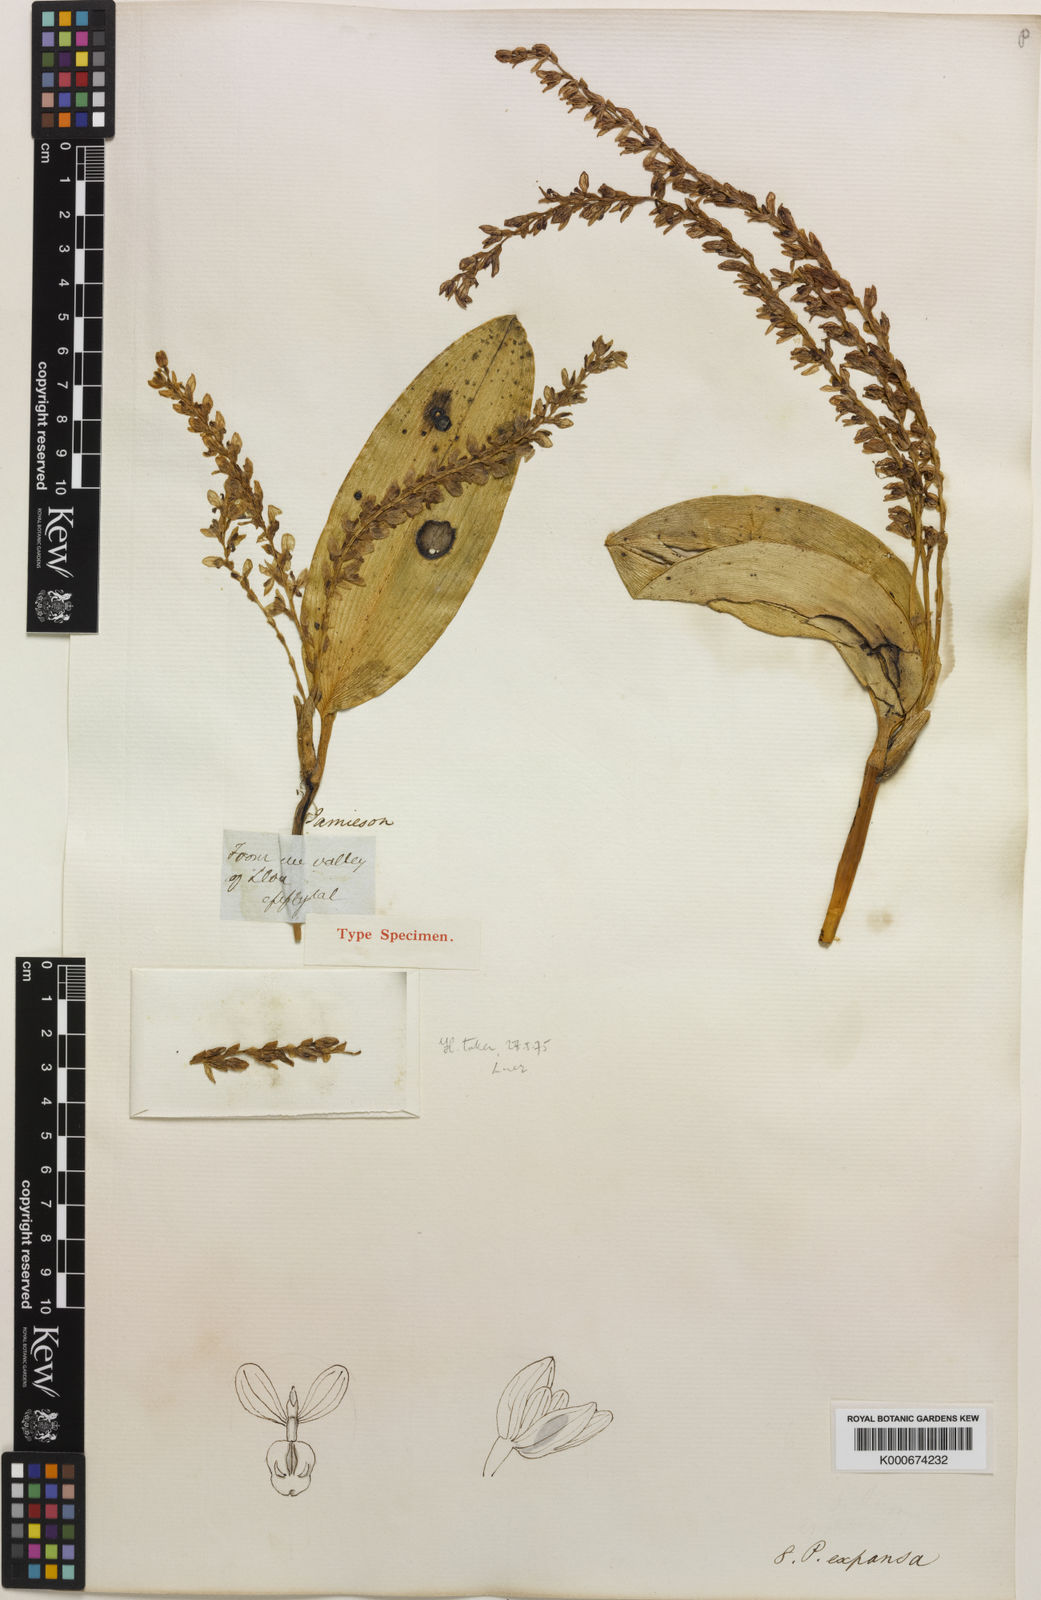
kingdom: Plantae
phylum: Tracheophyta
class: Liliopsida
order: Asparagales
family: Orchidaceae
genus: Stelis
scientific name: Stelis expansa
